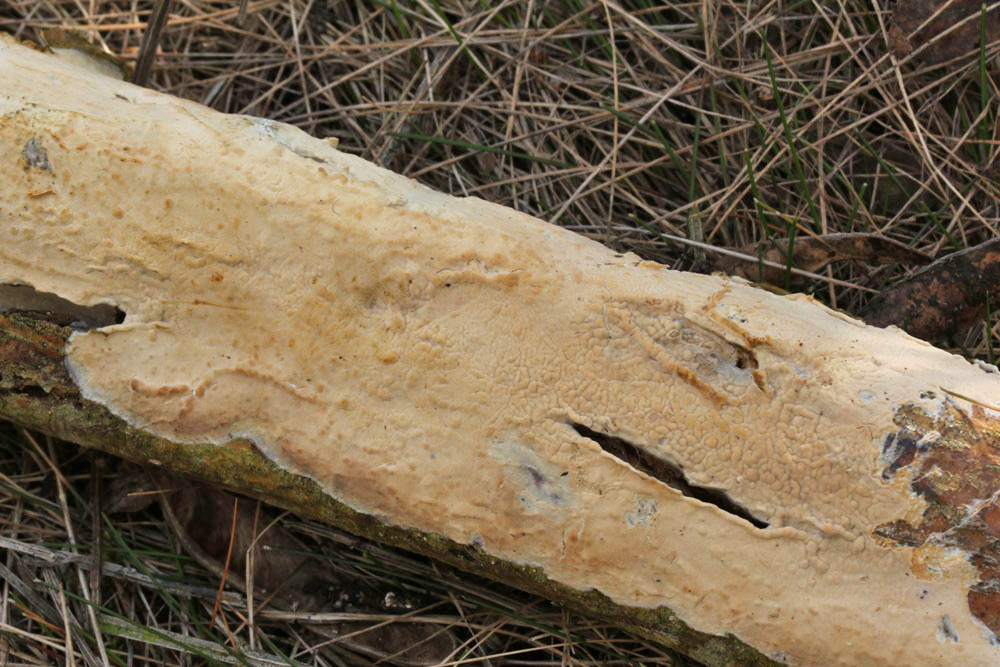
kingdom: Fungi
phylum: Basidiomycota
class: Agaricomycetes
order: Agaricales
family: Radulomycetaceae
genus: Radulomyces
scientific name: Radulomyces confluens
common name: glat naftalinskind
